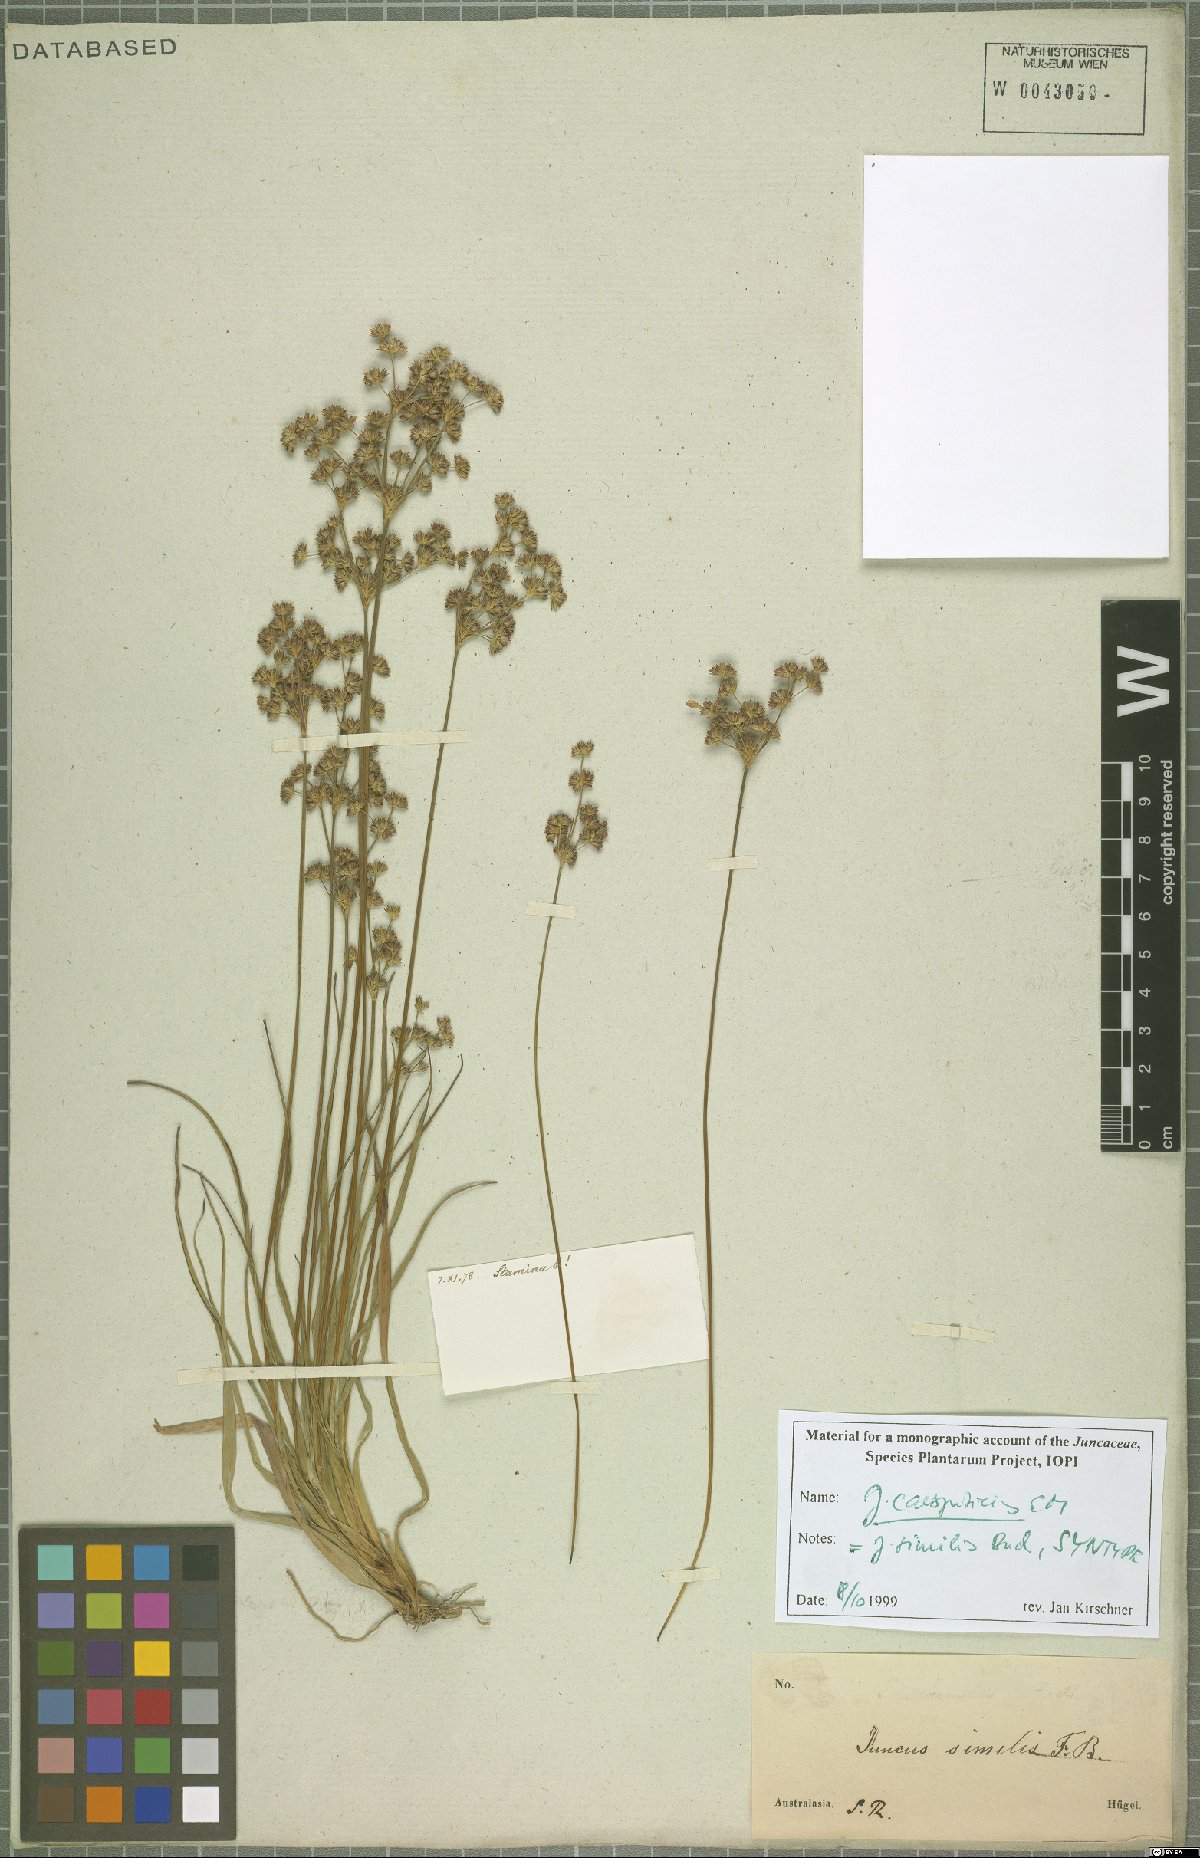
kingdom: Plantae
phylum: Tracheophyta
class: Liliopsida
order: Poales
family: Juncaceae
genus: Juncus
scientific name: Juncus caespiticius
